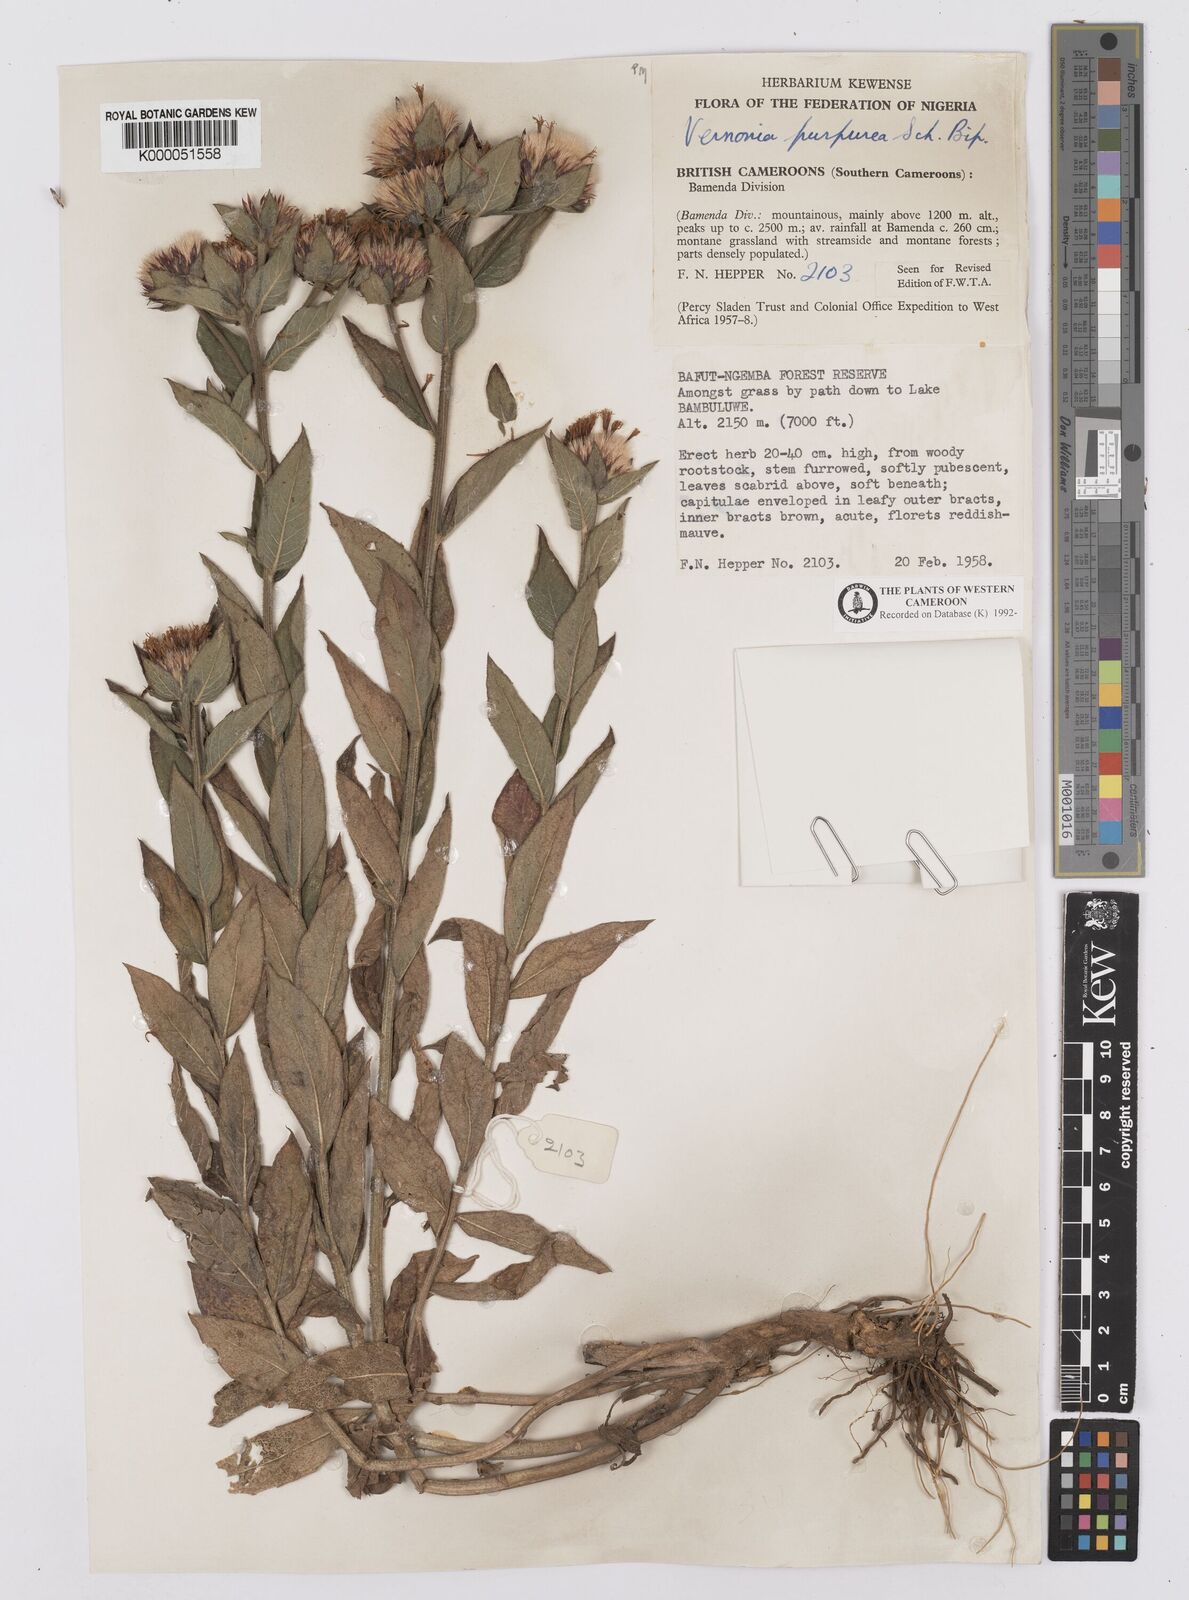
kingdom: Plantae
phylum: Tracheophyta
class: Magnoliopsida
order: Asterales
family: Asteraceae
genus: Vernonia
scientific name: Vernonia
